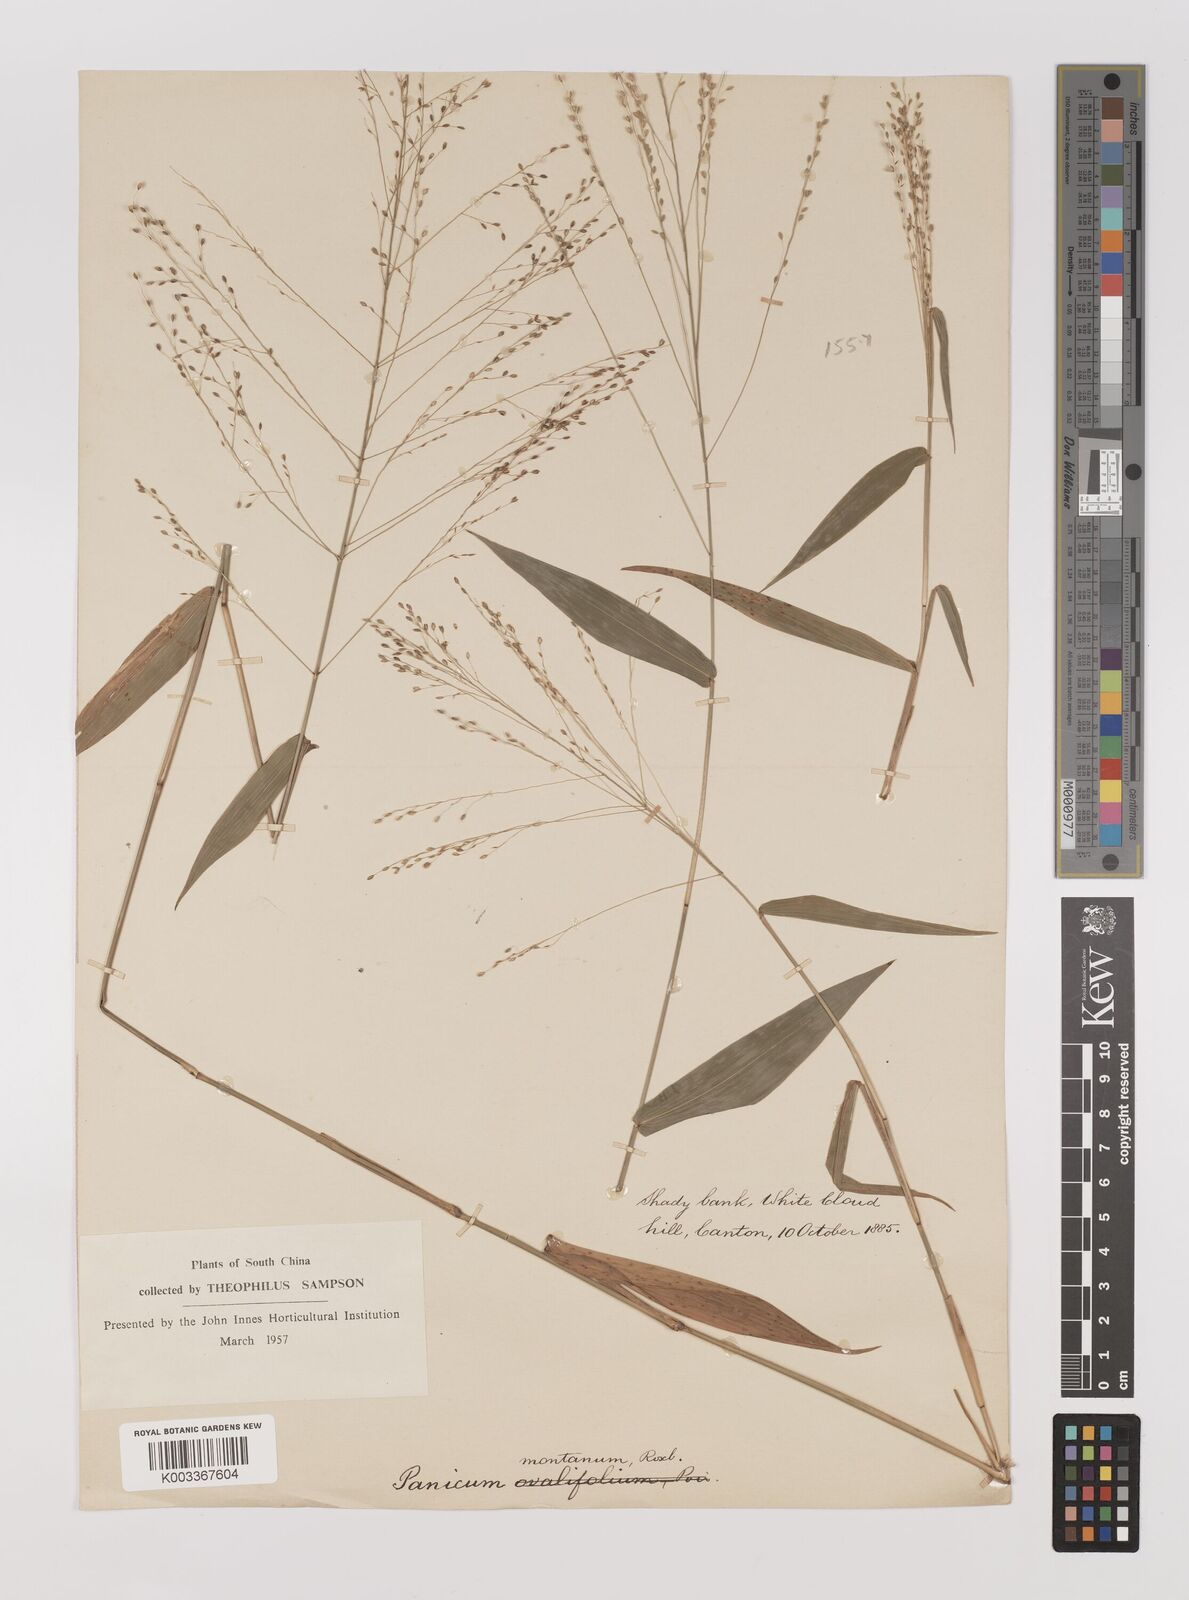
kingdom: Plantae
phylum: Tracheophyta
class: Liliopsida
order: Poales
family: Poaceae
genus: Panicum
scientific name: Panicum notatum
